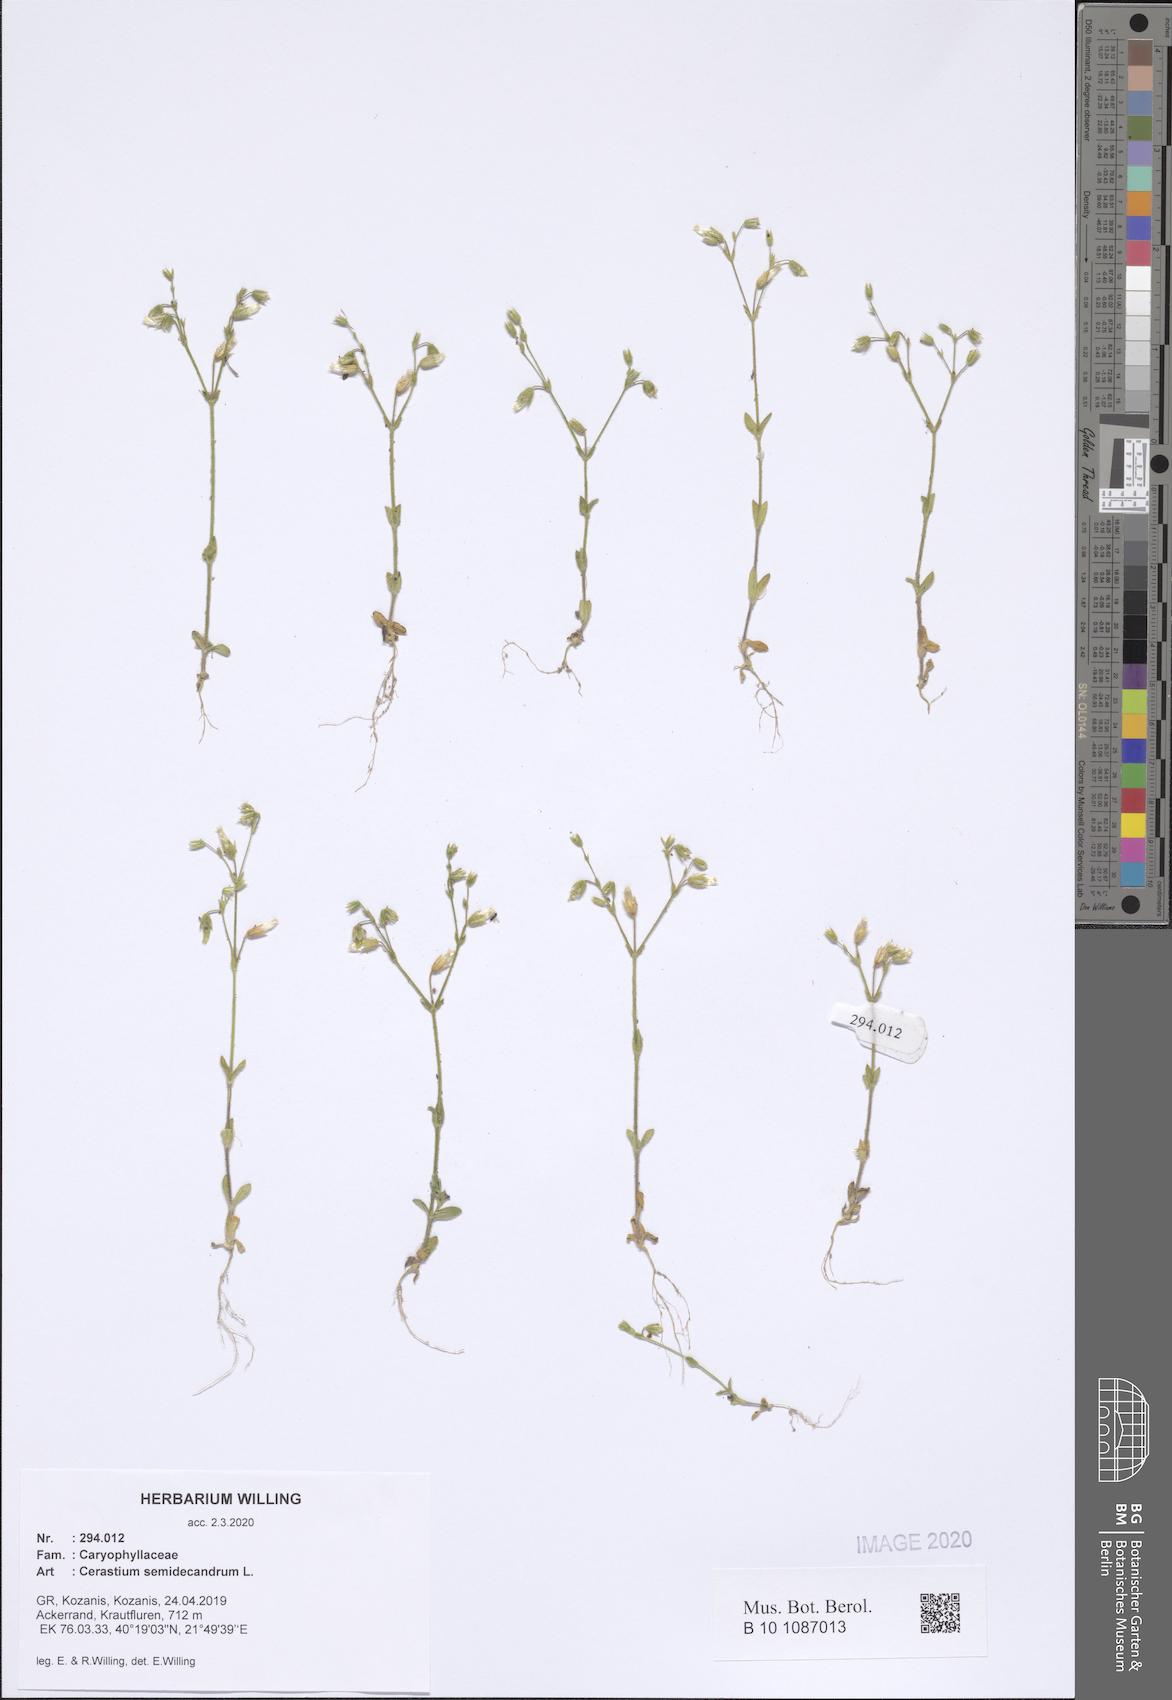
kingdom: Plantae
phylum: Tracheophyta
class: Magnoliopsida
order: Caryophyllales
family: Caryophyllaceae
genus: Cerastium
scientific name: Cerastium semidecandrum
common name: Little mouse-ear
